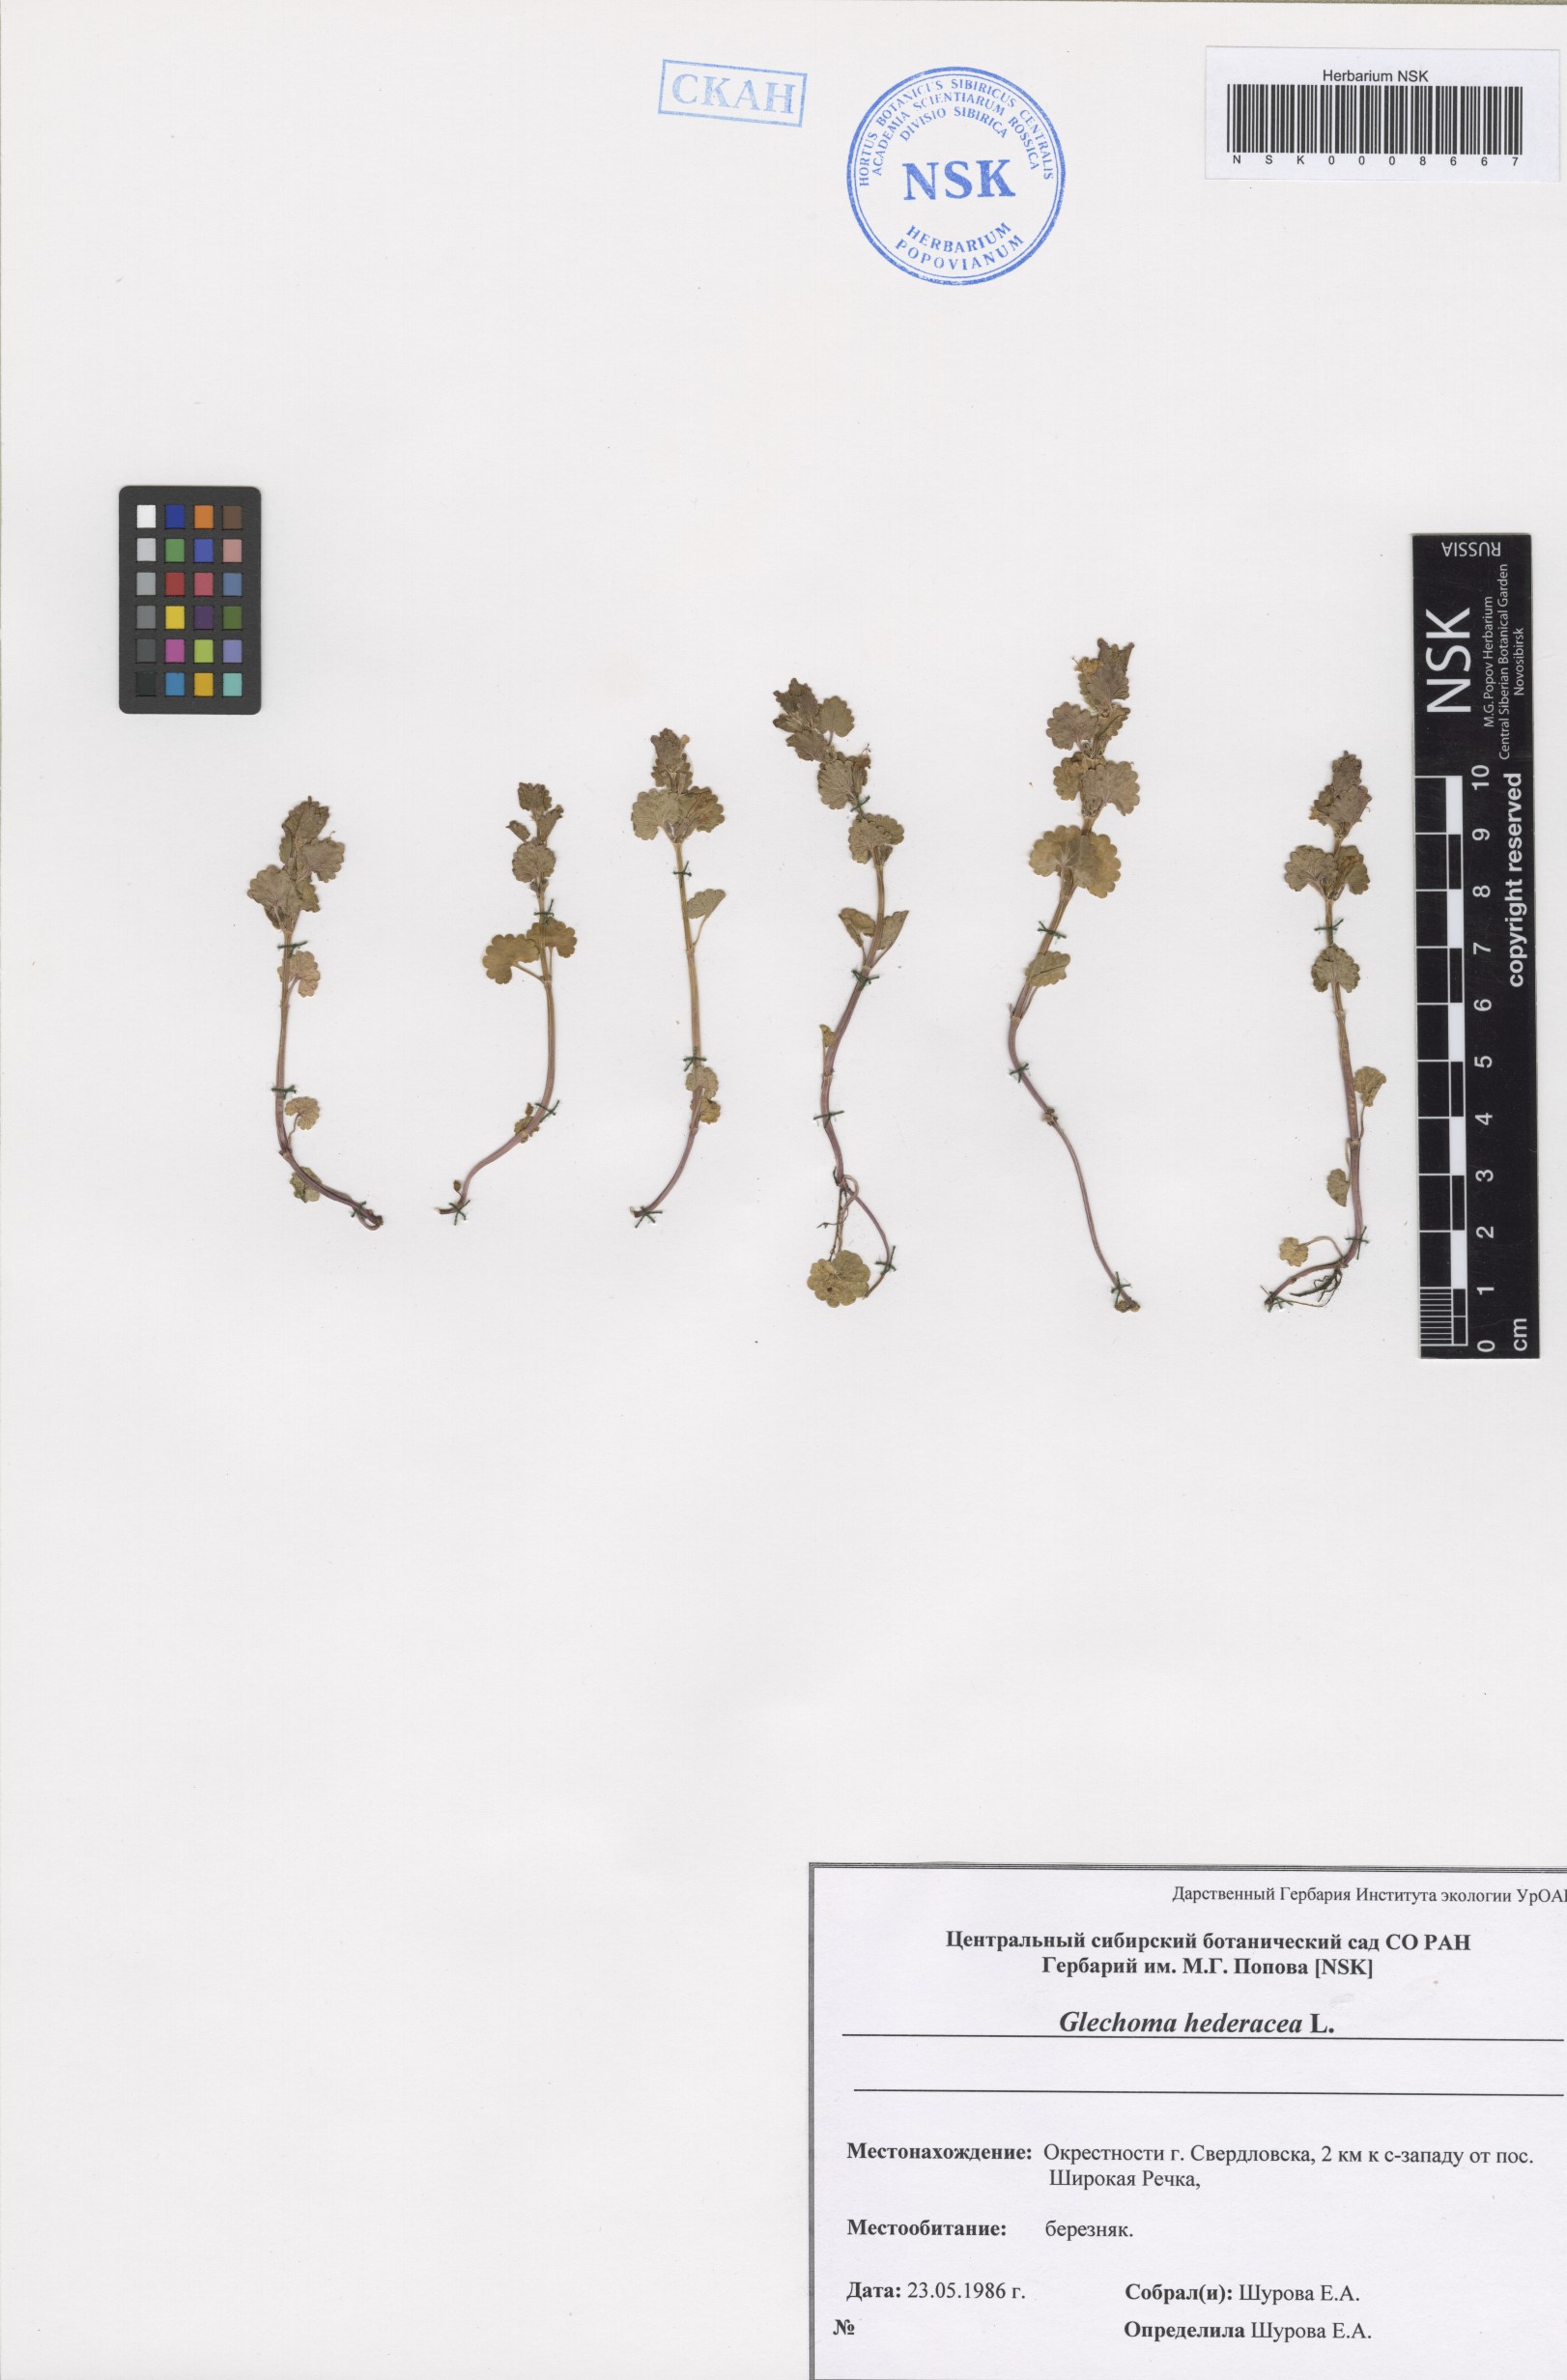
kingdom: Plantae
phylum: Tracheophyta
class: Magnoliopsida
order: Lamiales
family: Lamiaceae
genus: Glechoma
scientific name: Glechoma hederacea
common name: Ground ivy
